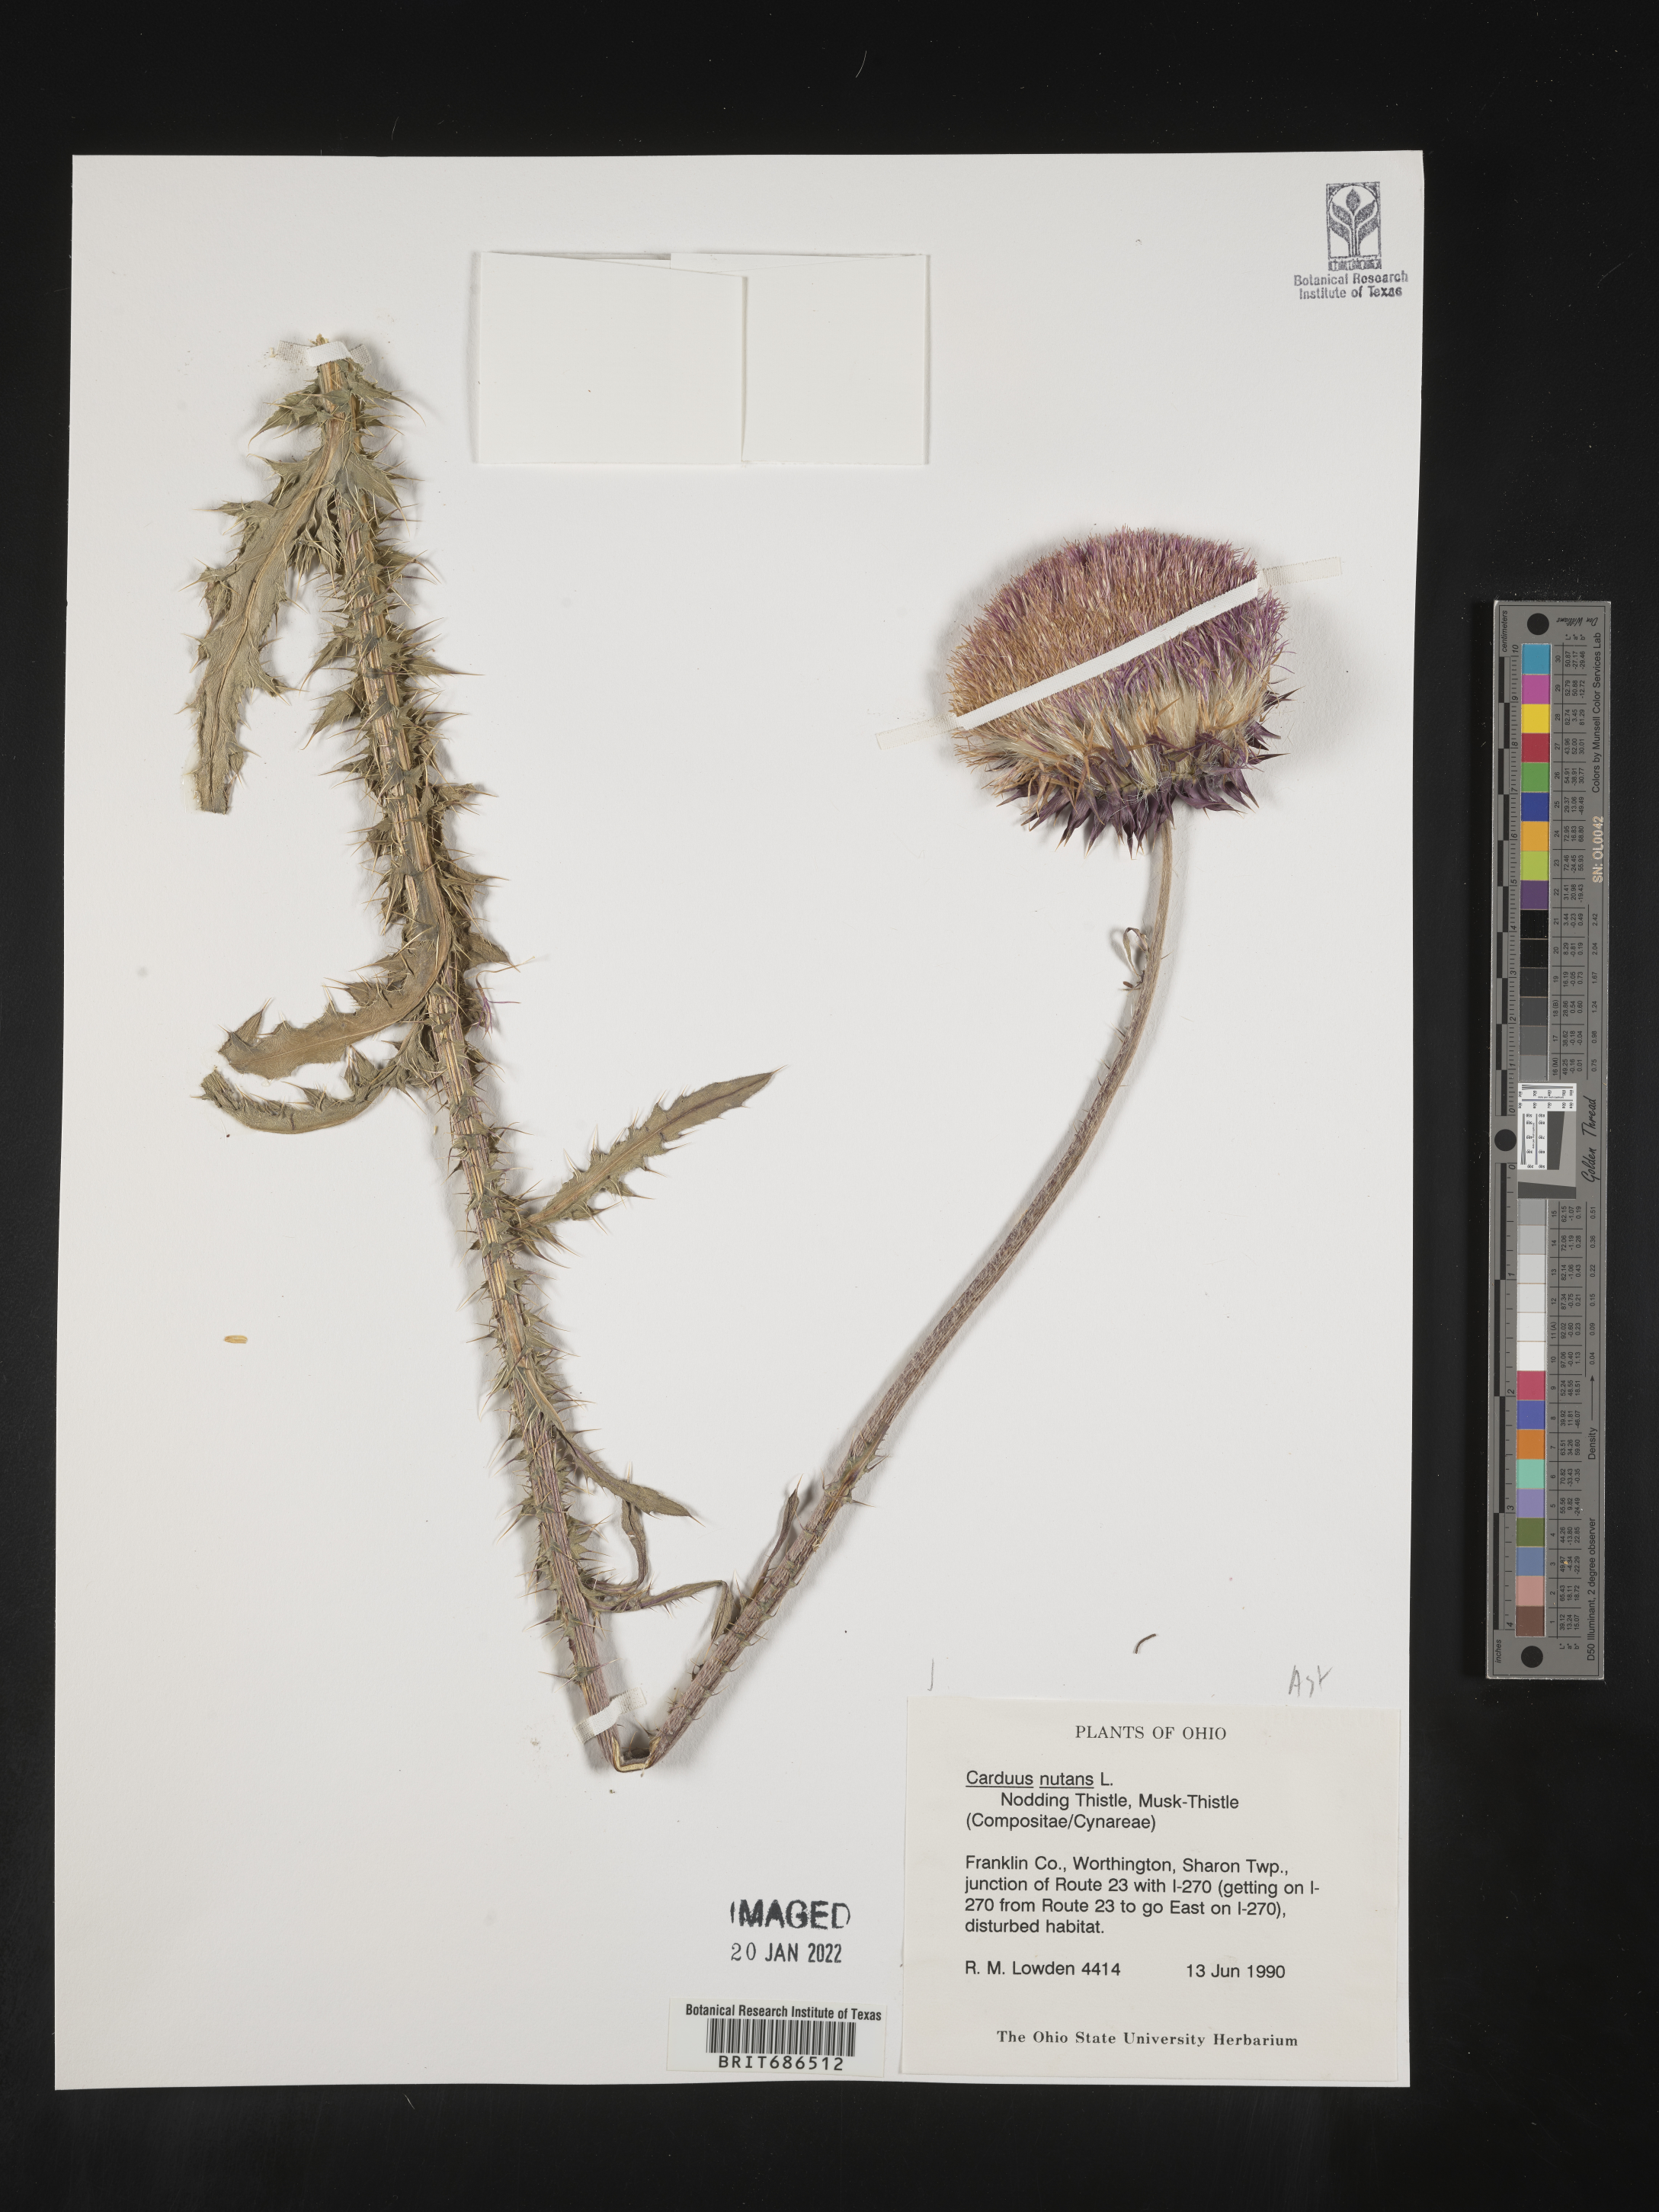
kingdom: Plantae
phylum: Tracheophyta
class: Magnoliopsida
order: Asterales
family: Asteraceae
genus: Carduus
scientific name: Carduus nutans
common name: Musk thistle
